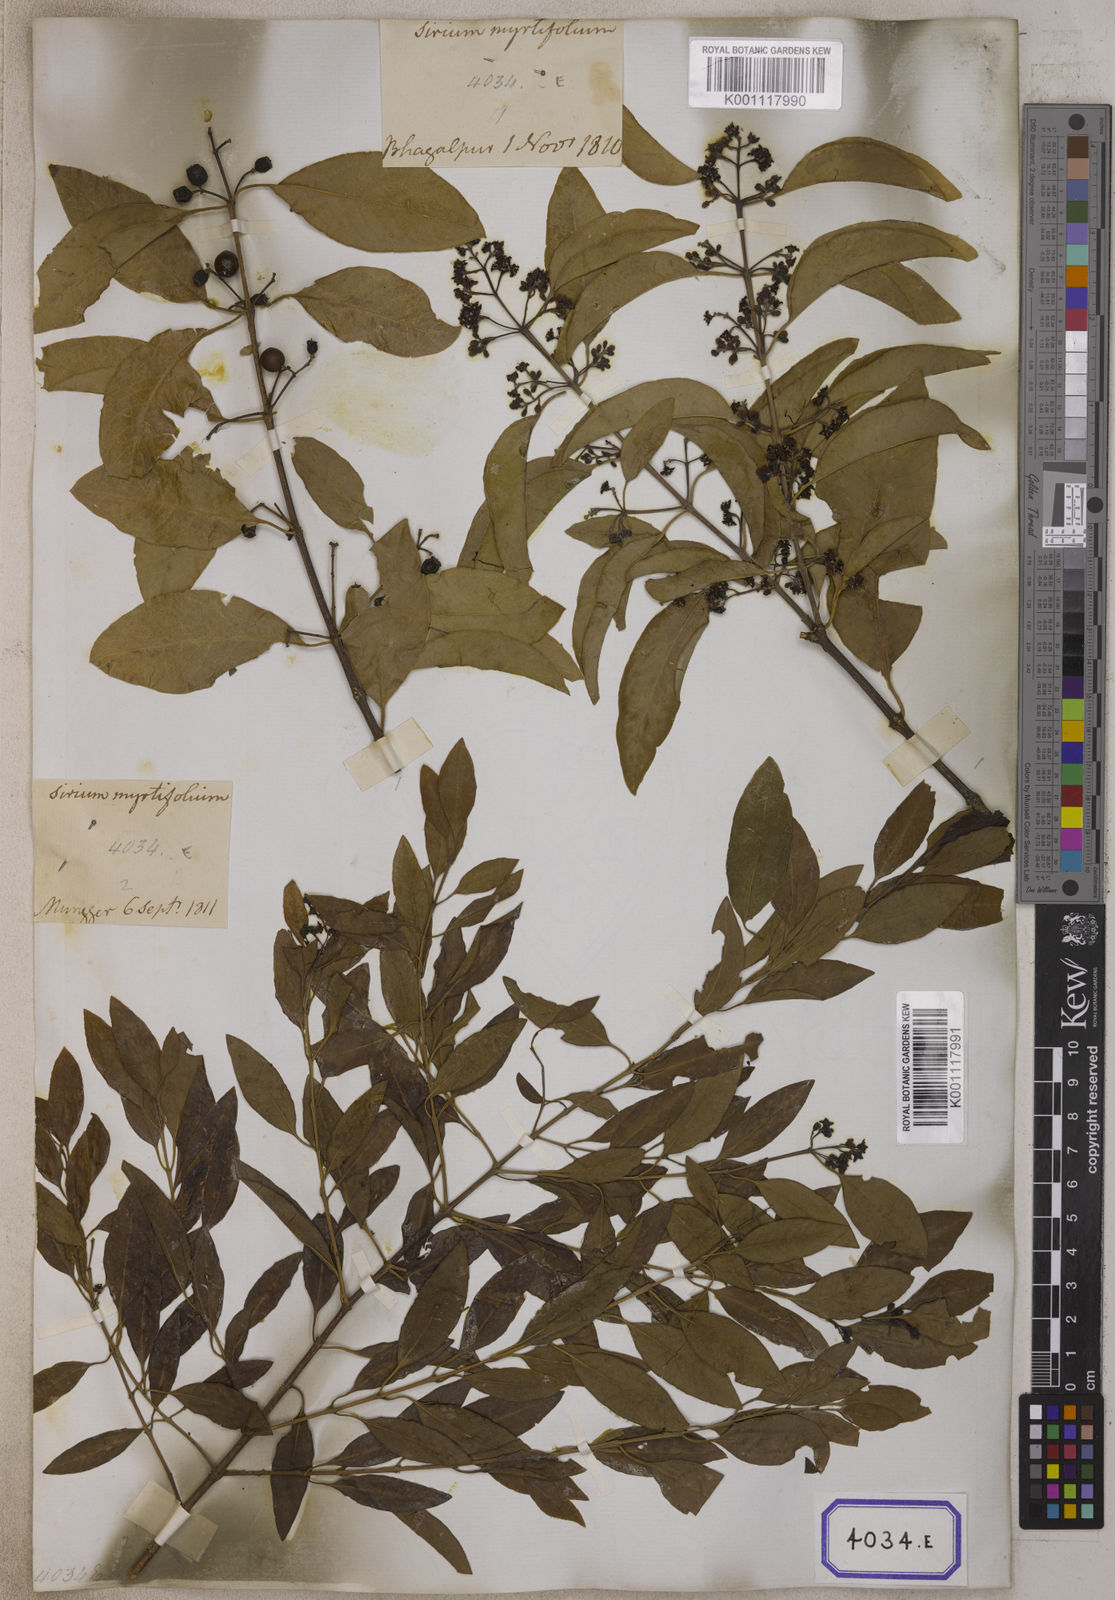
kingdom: Plantae
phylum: Tracheophyta
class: Magnoliopsida
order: Santalales
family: Santalaceae
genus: Santalum
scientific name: Santalum album
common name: Indian sandalwood
